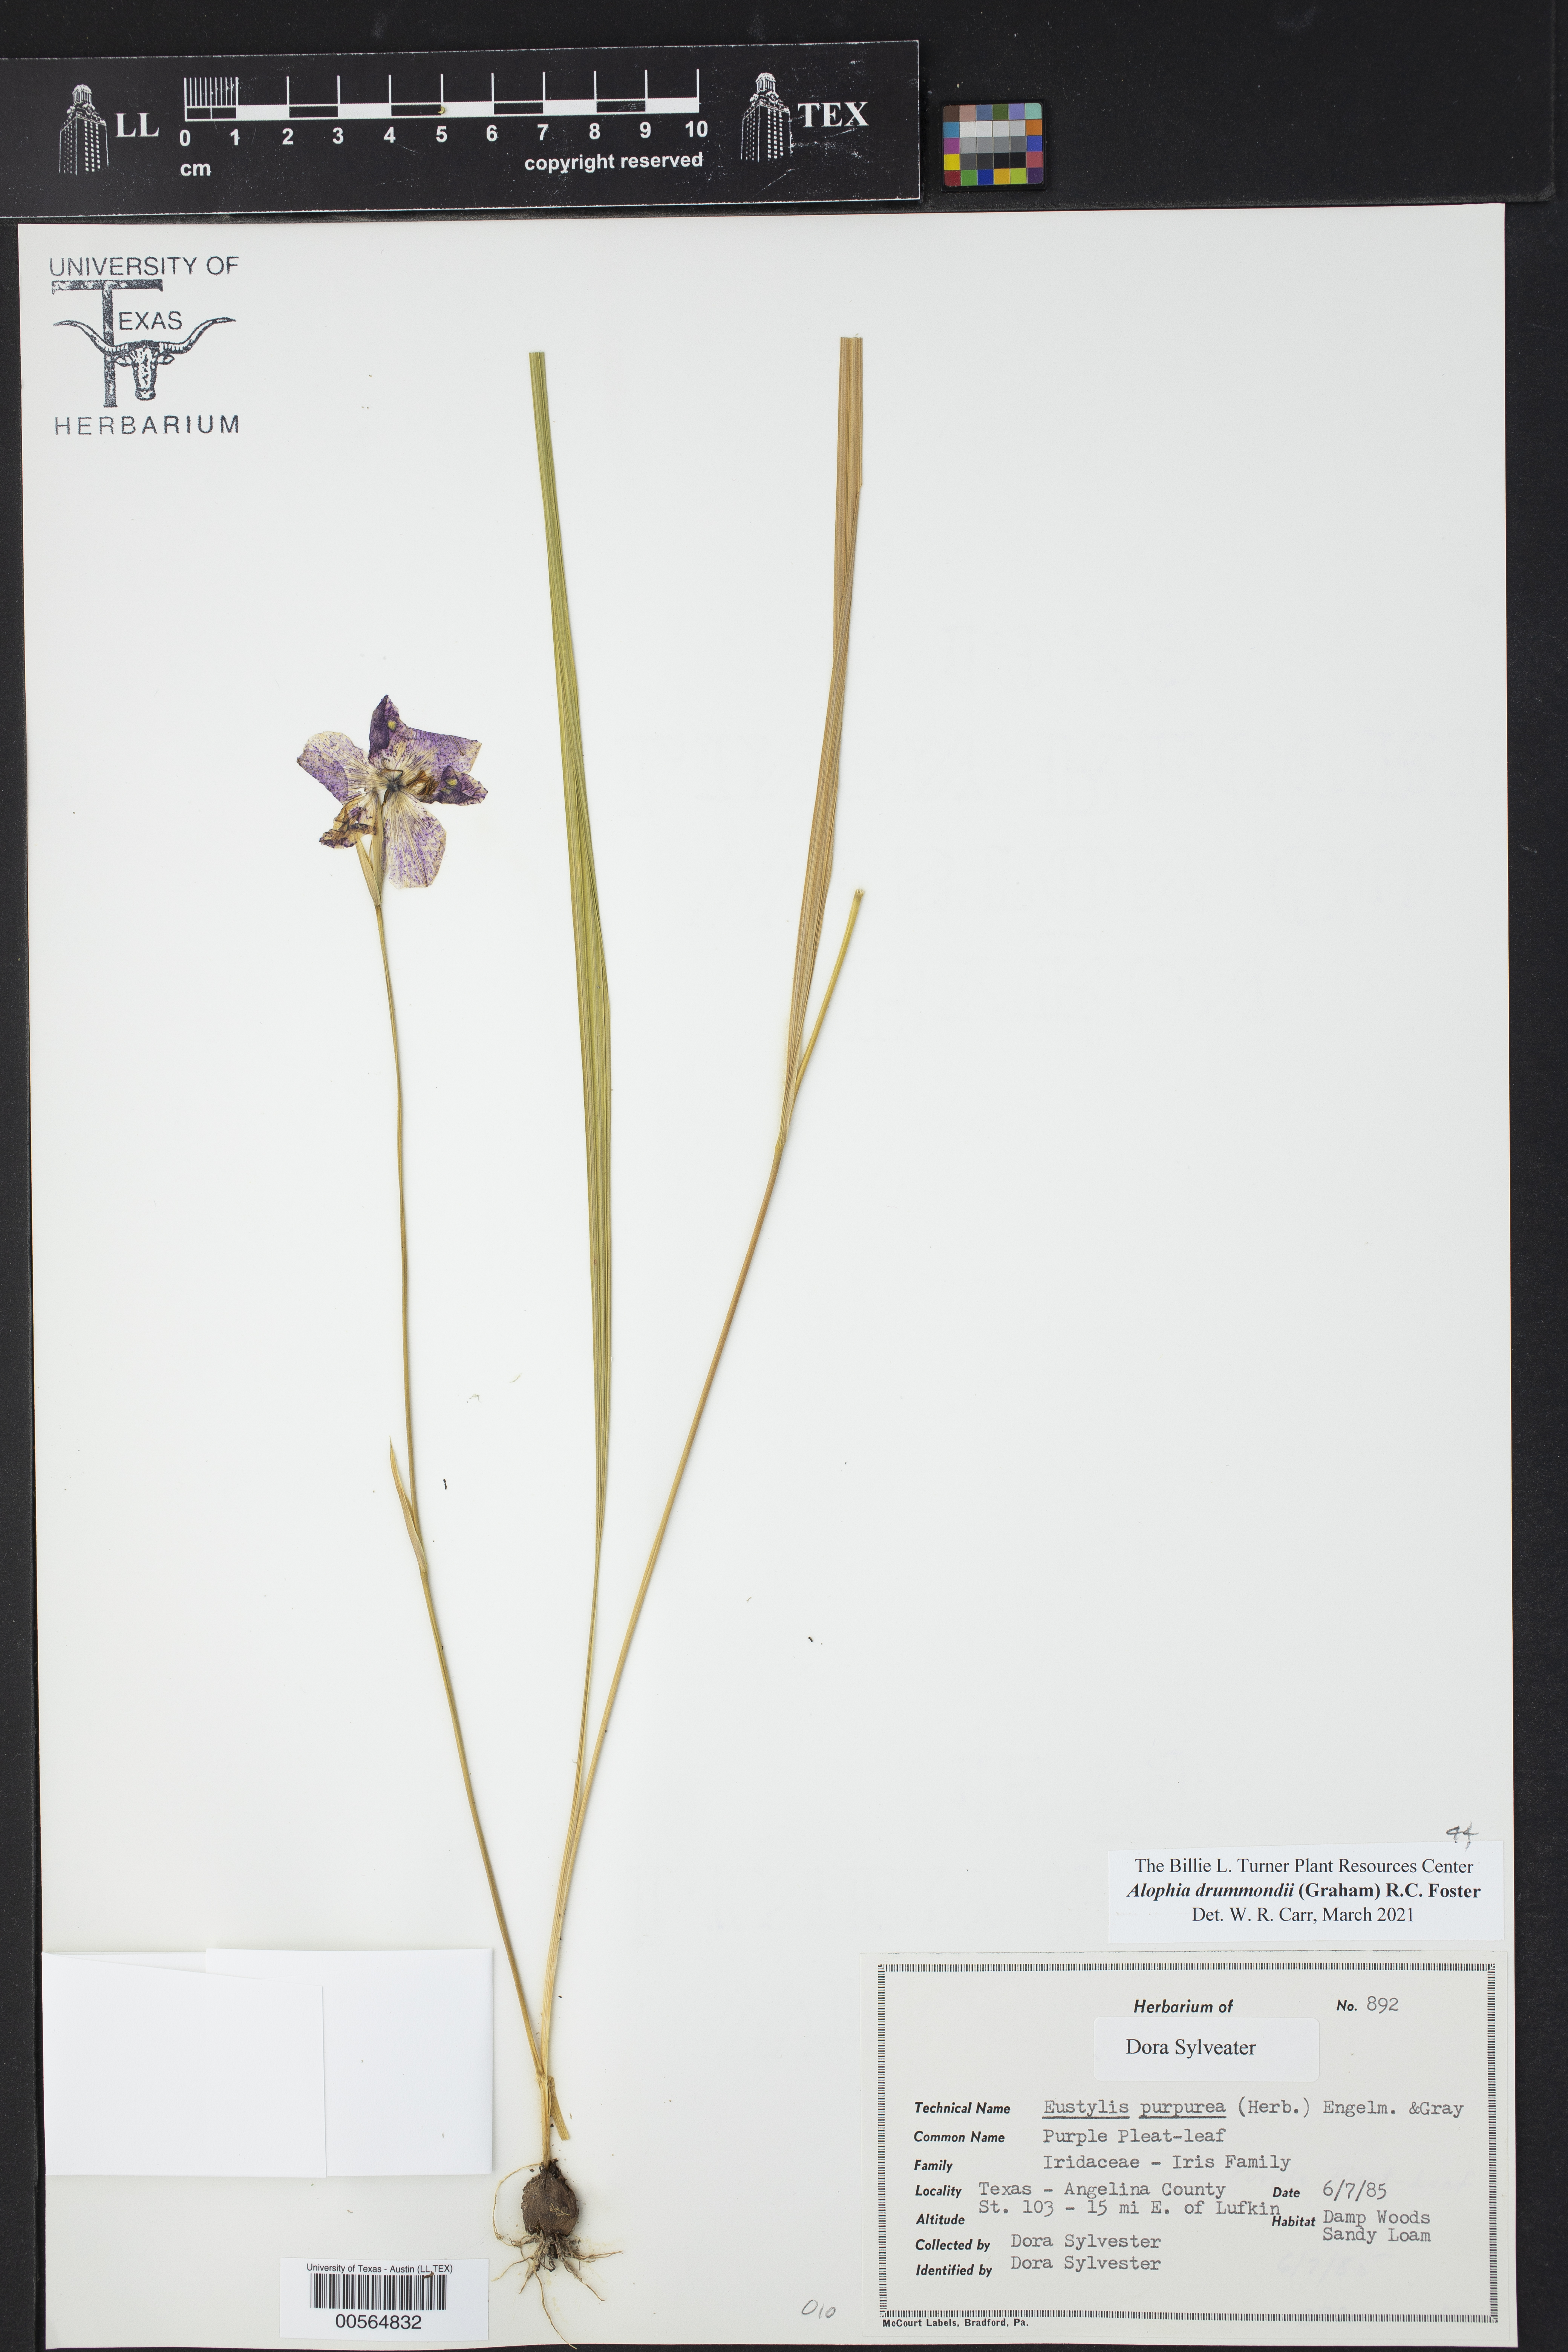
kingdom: Plantae
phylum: Tracheophyta
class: Liliopsida
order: Asparagales
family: Iridaceae
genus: Alophia
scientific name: Alophia drummondii
